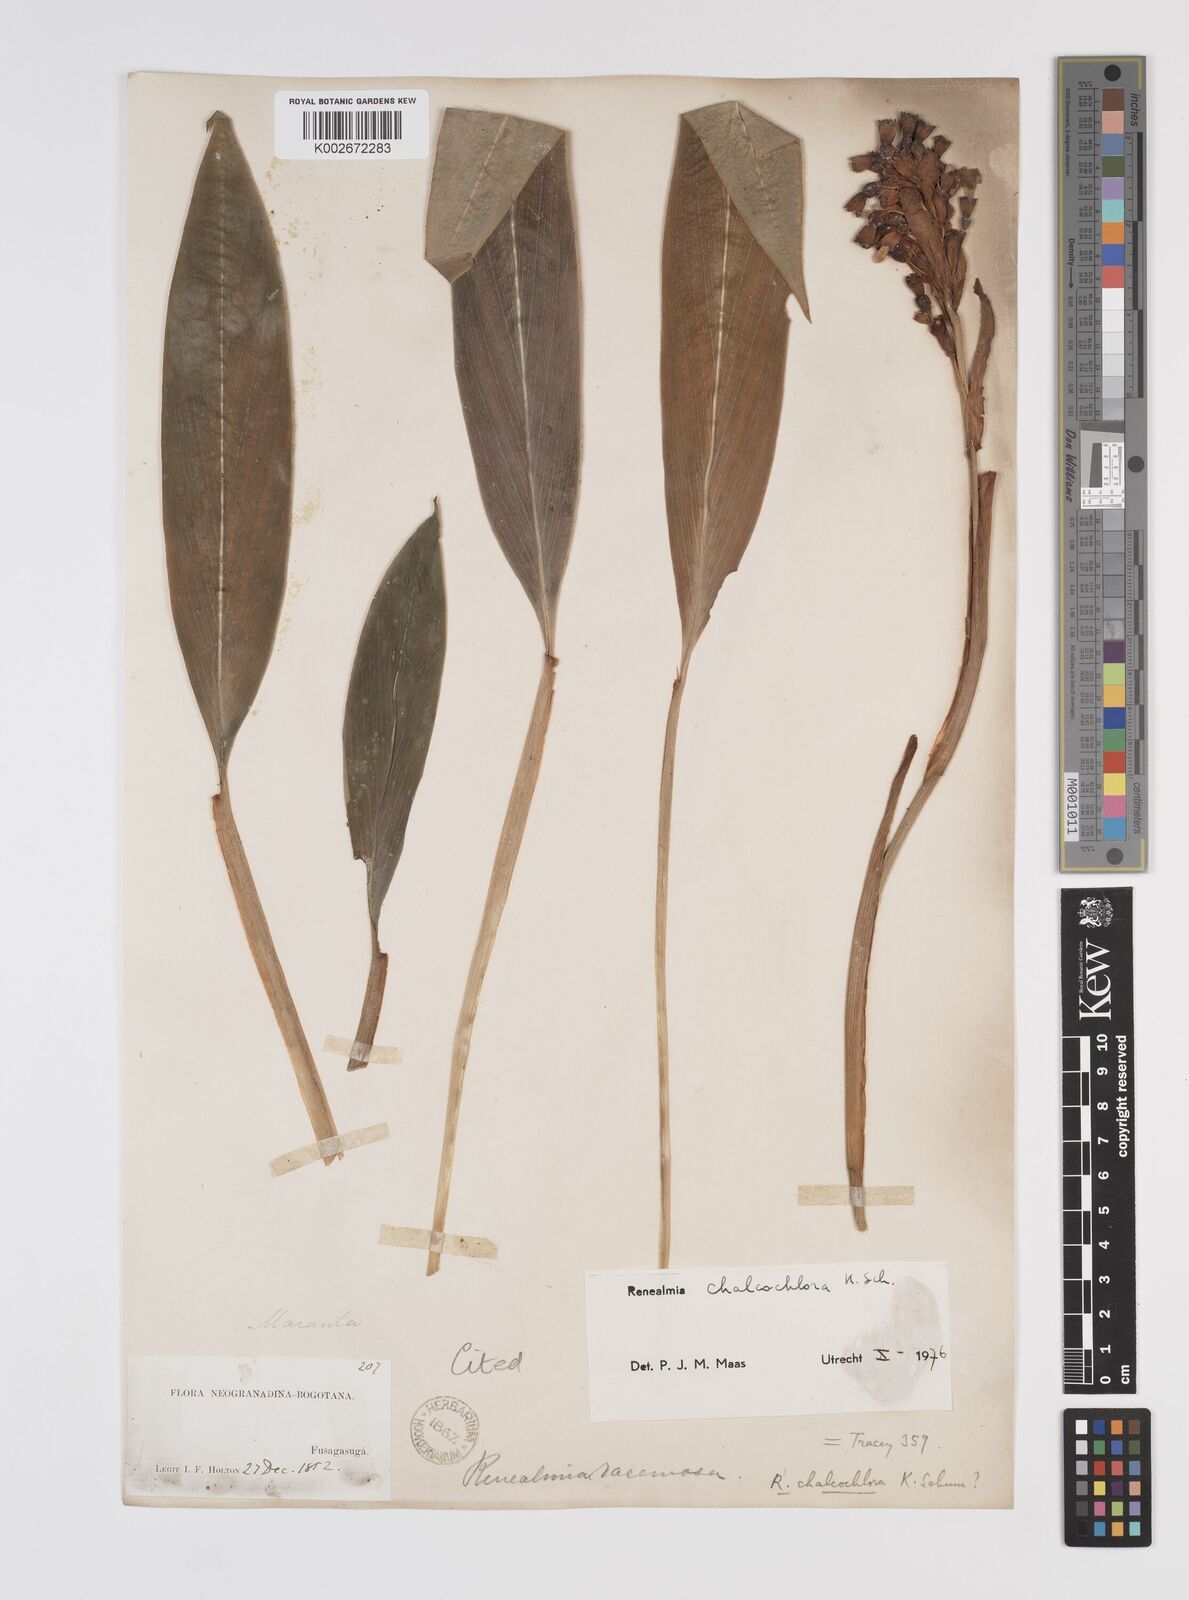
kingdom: Plantae
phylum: Tracheophyta
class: Liliopsida
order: Zingiberales
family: Zingiberaceae
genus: Renealmia
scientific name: Renealmia chalcochlora
